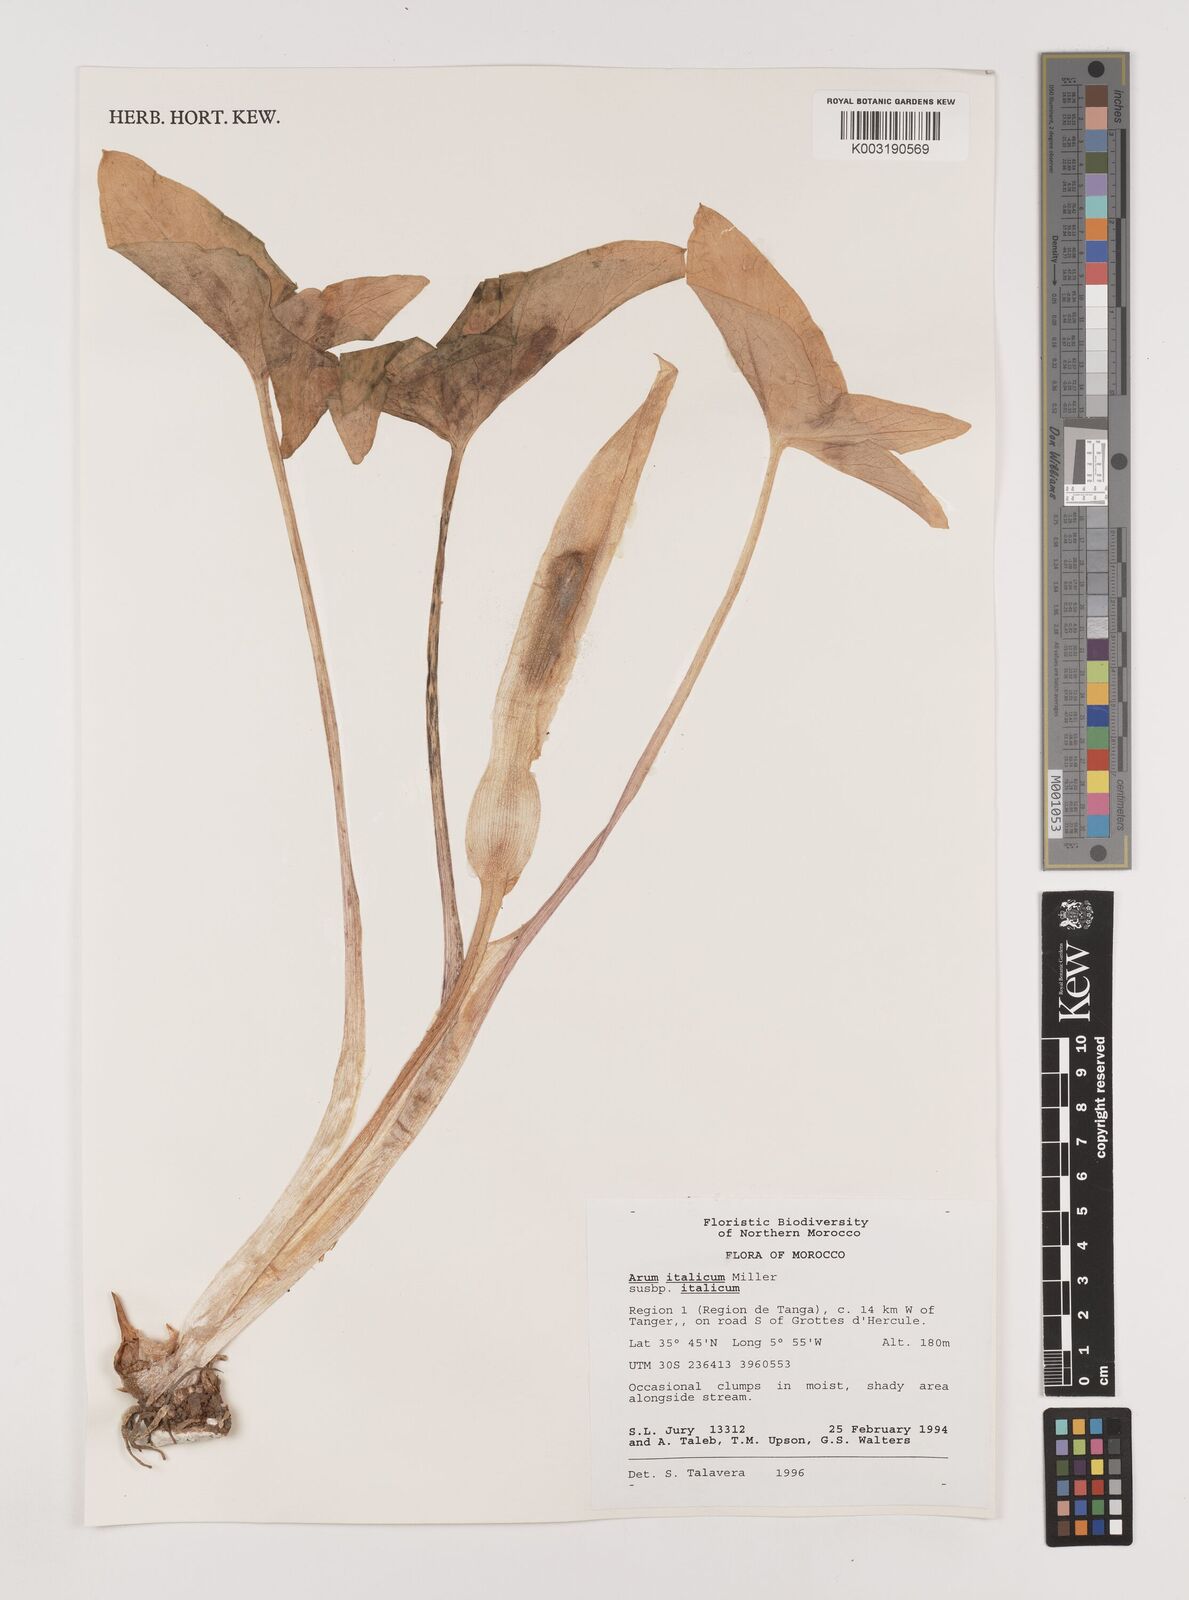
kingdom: Plantae
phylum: Tracheophyta
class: Liliopsida
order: Alismatales
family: Araceae
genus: Arum
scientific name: Arum italicum
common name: Italian lords-and-ladies
